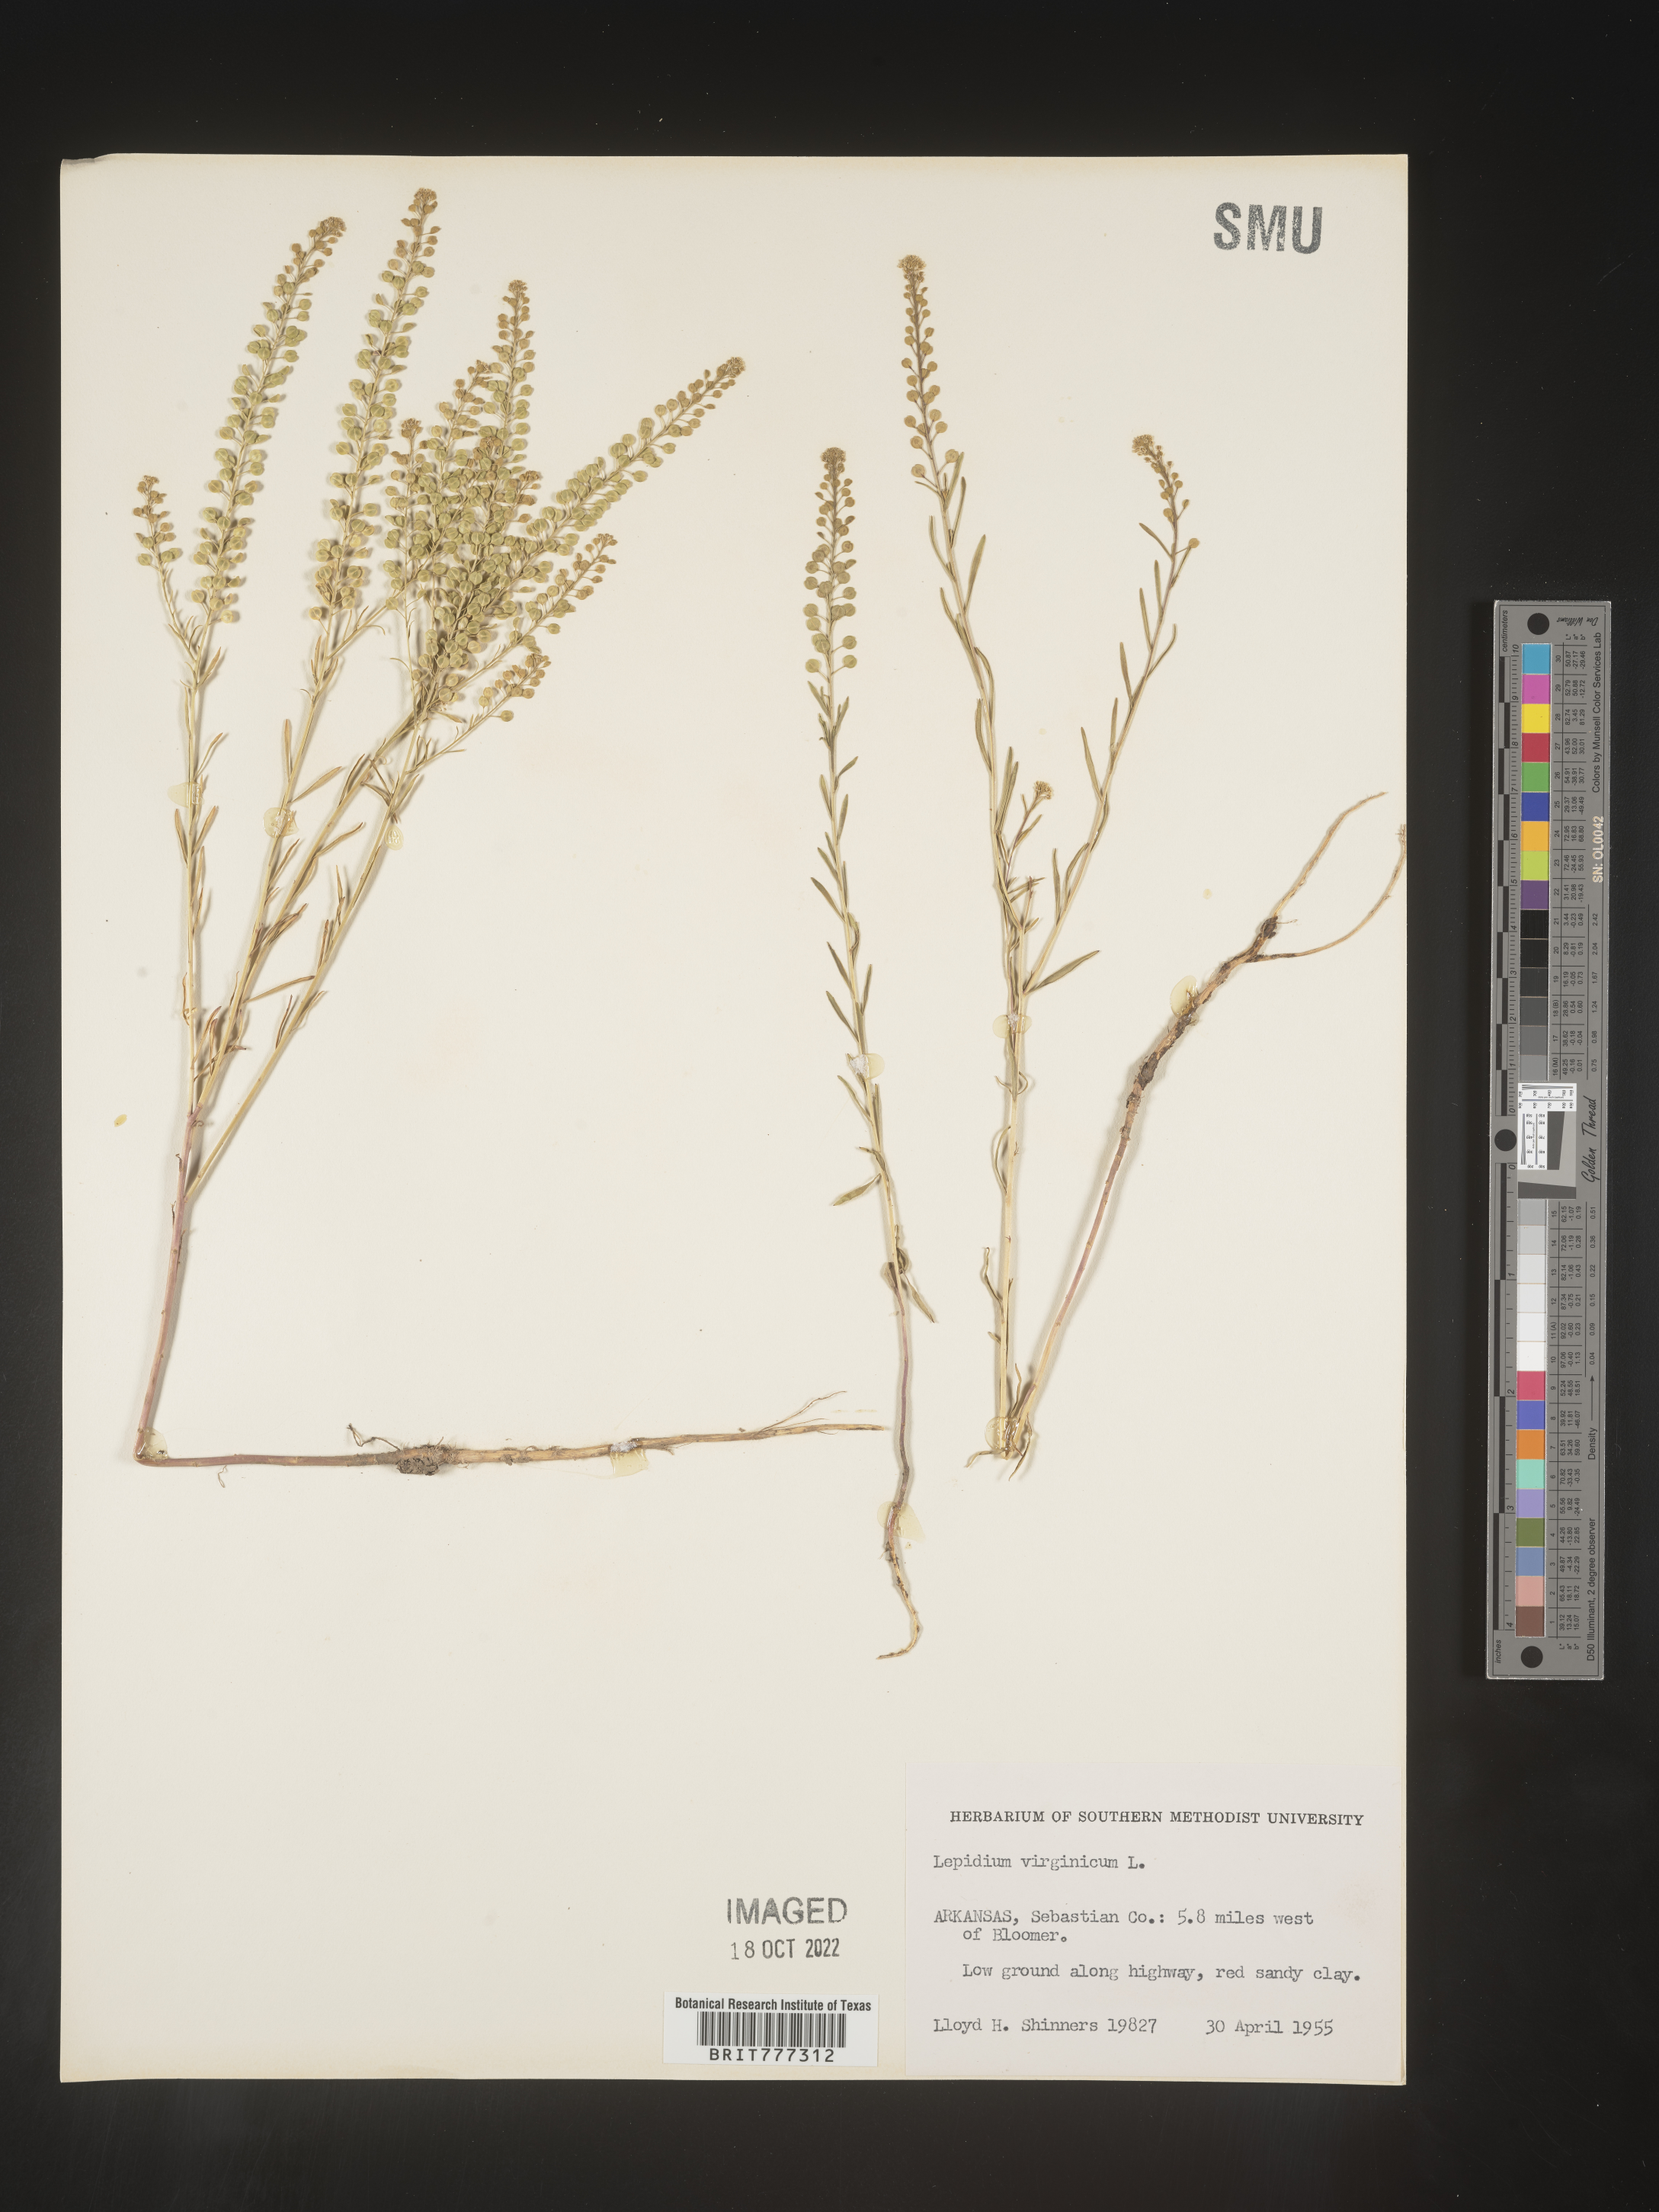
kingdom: Plantae
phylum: Tracheophyta
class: Magnoliopsida
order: Brassicales
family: Brassicaceae
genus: Lepidium
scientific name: Lepidium virginicum
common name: Least pepperwort
